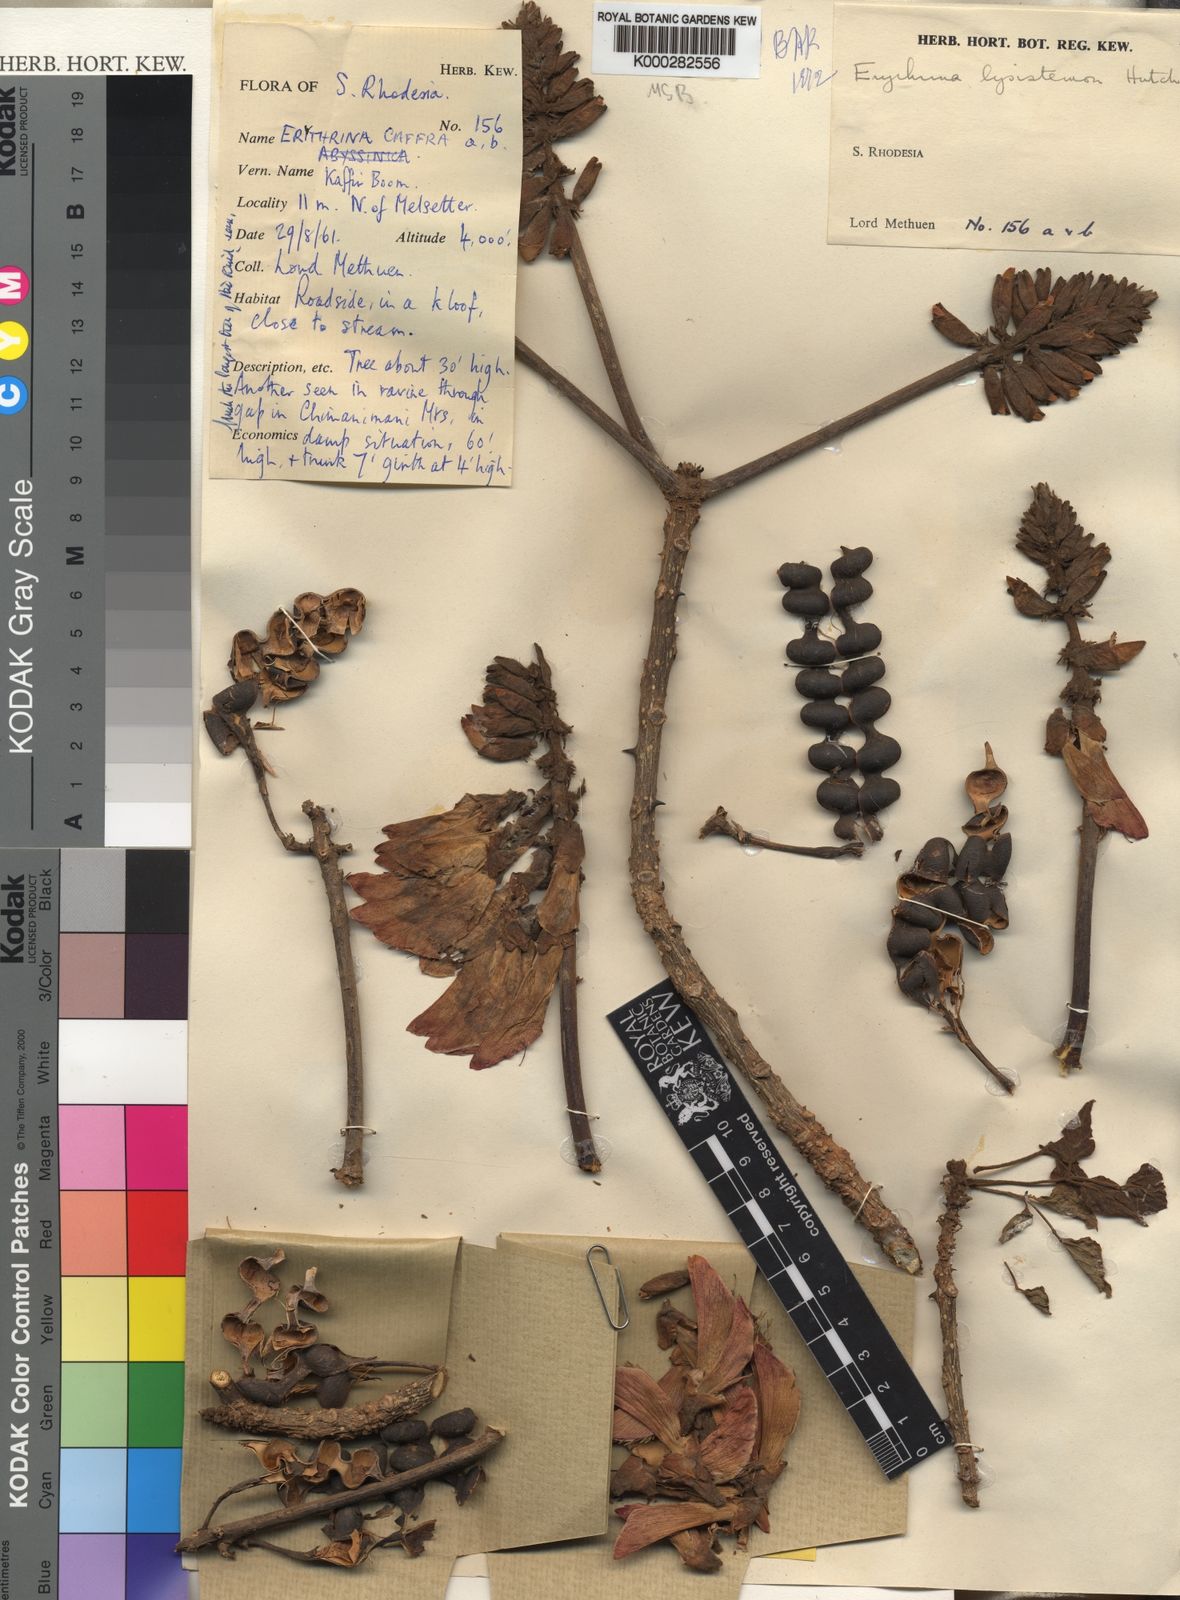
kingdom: Plantae
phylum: Tracheophyta
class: Magnoliopsida
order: Fabales
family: Fabaceae
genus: Erythrina
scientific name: Erythrina lysistemon
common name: Common coral tree
